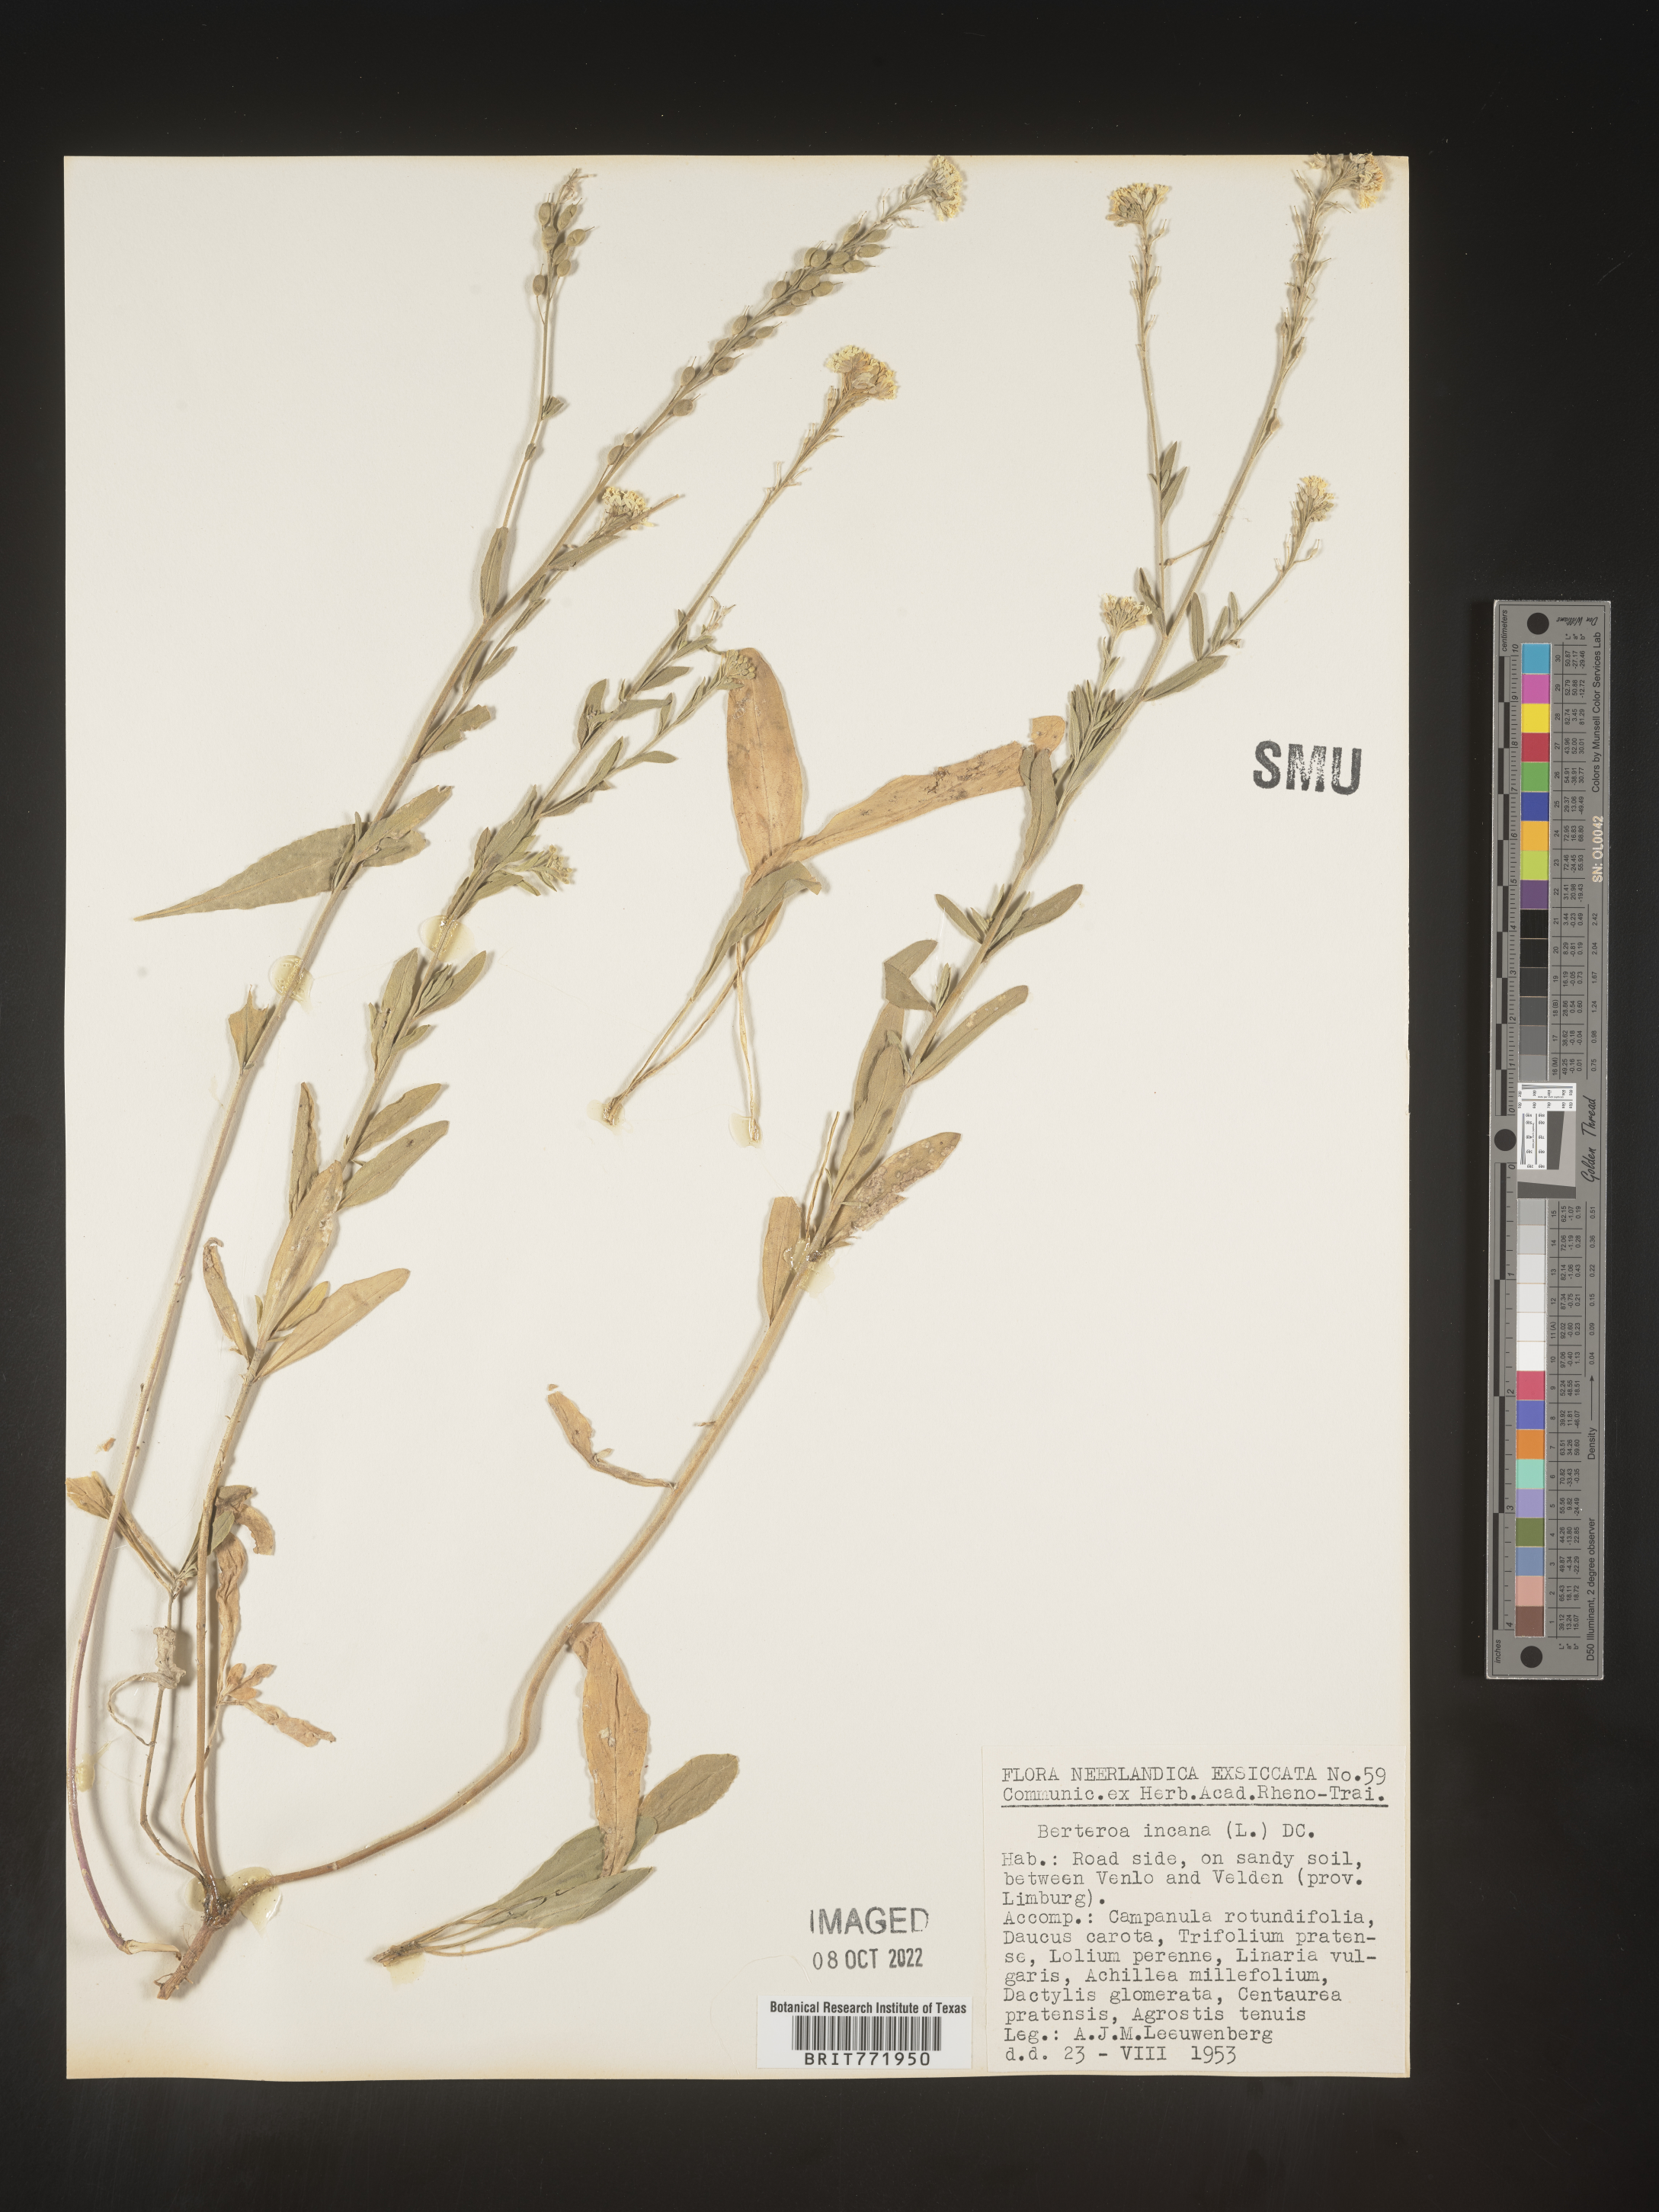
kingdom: Plantae
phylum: Tracheophyta
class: Magnoliopsida
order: Brassicales
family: Brassicaceae
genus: Berteroa
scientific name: Berteroa
